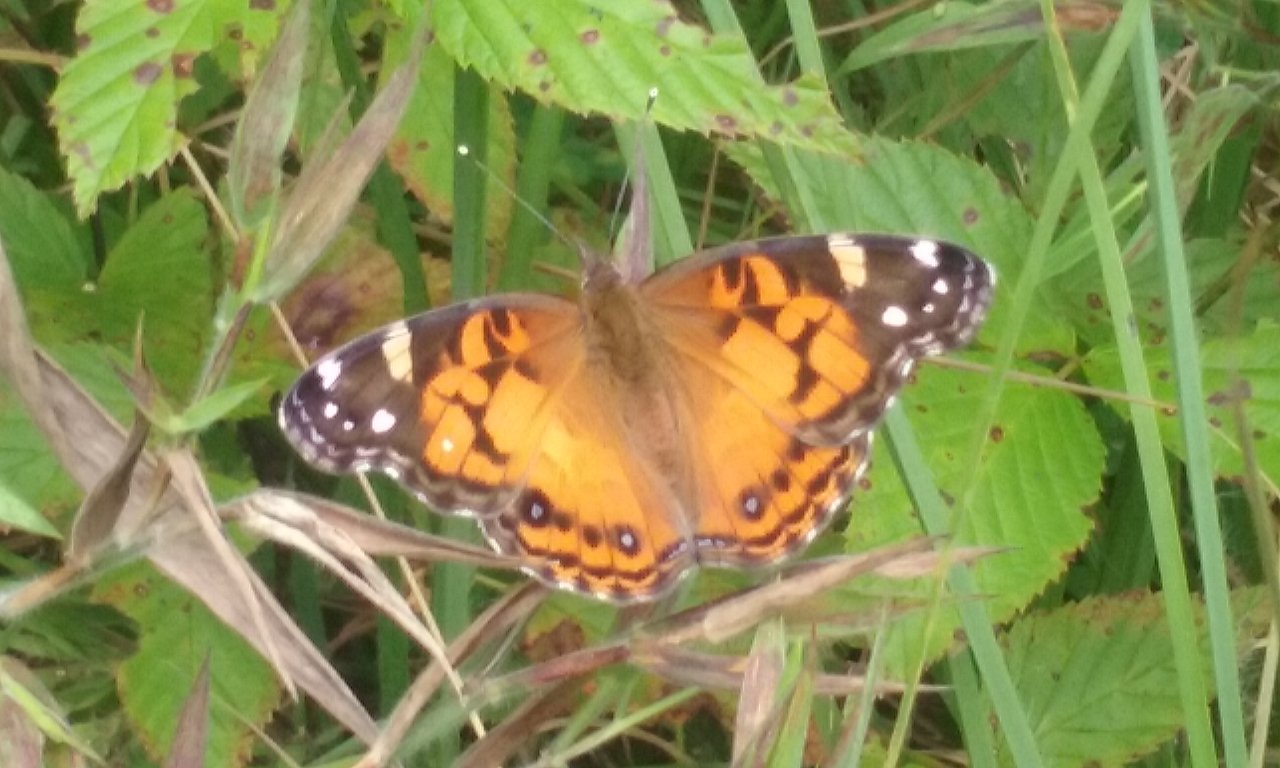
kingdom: Animalia
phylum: Arthropoda
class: Insecta
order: Lepidoptera
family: Nymphalidae
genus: Vanessa
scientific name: Vanessa virginiensis
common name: American Lady
